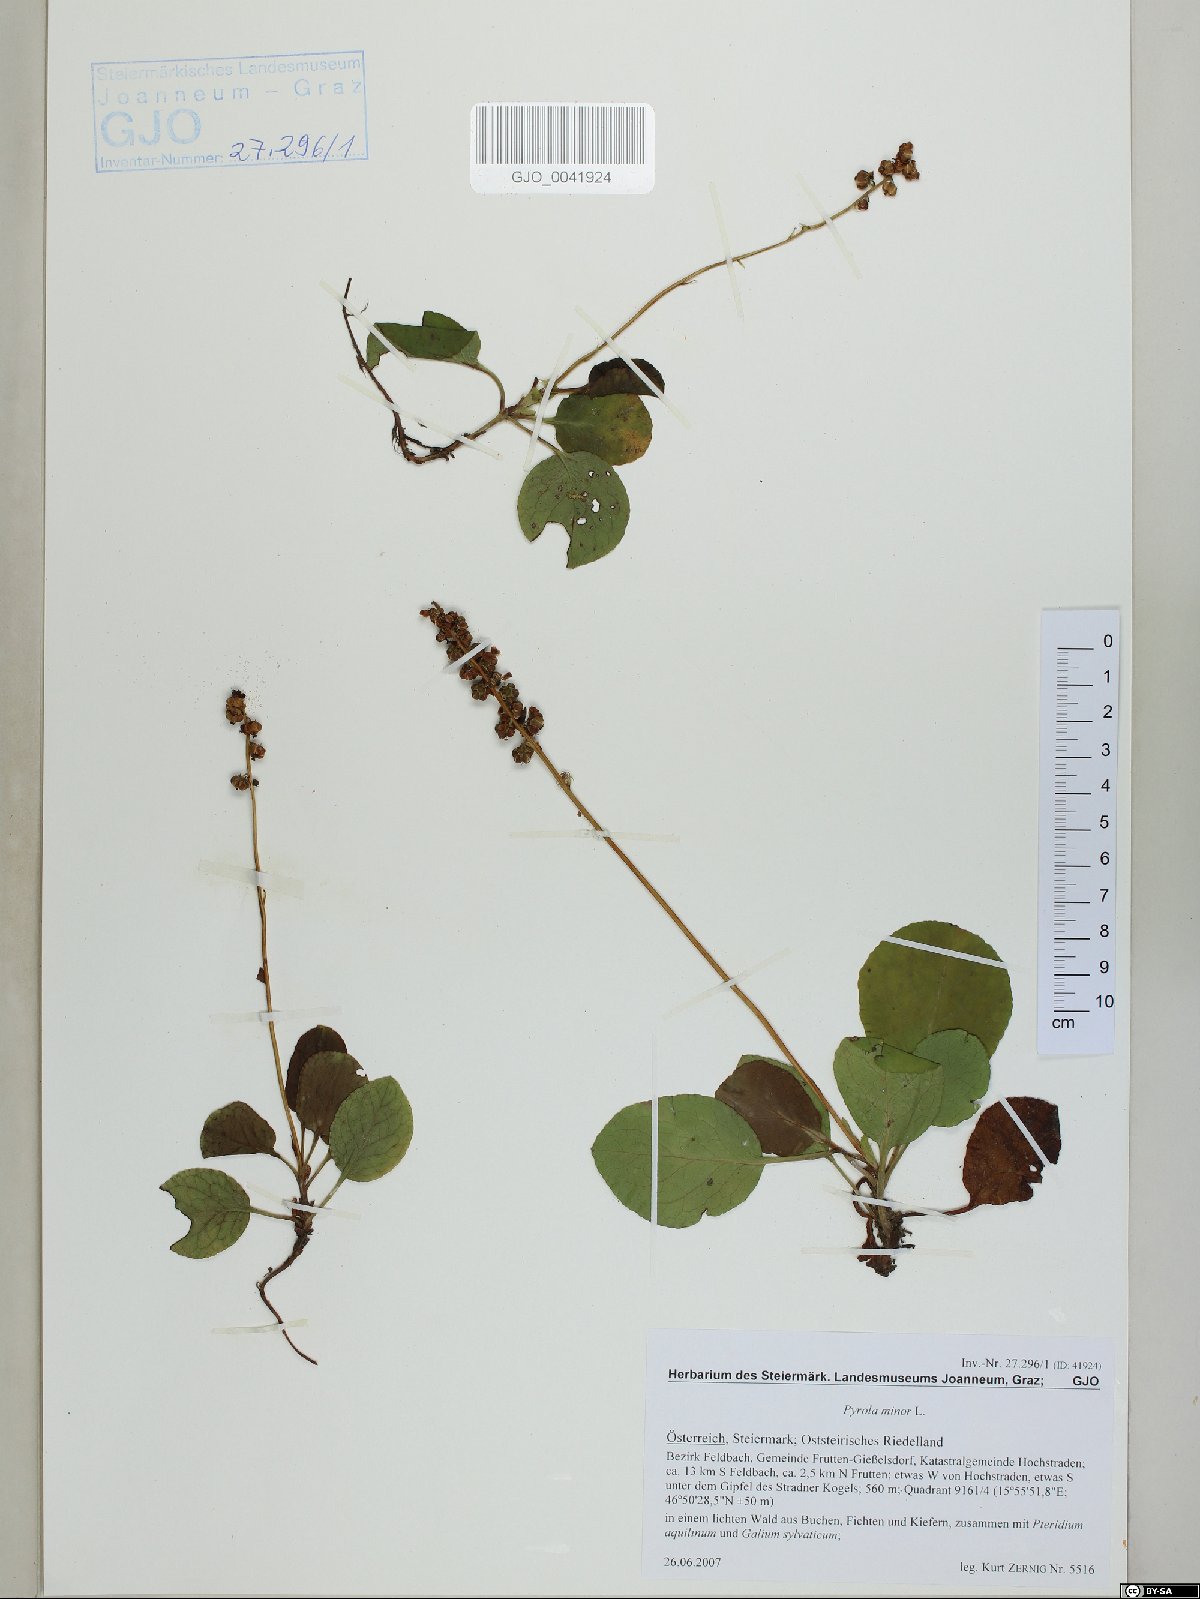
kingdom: Plantae
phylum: Tracheophyta
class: Magnoliopsida
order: Ericales
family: Ericaceae
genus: Pyrola
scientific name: Pyrola minor
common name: Common wintergreen
